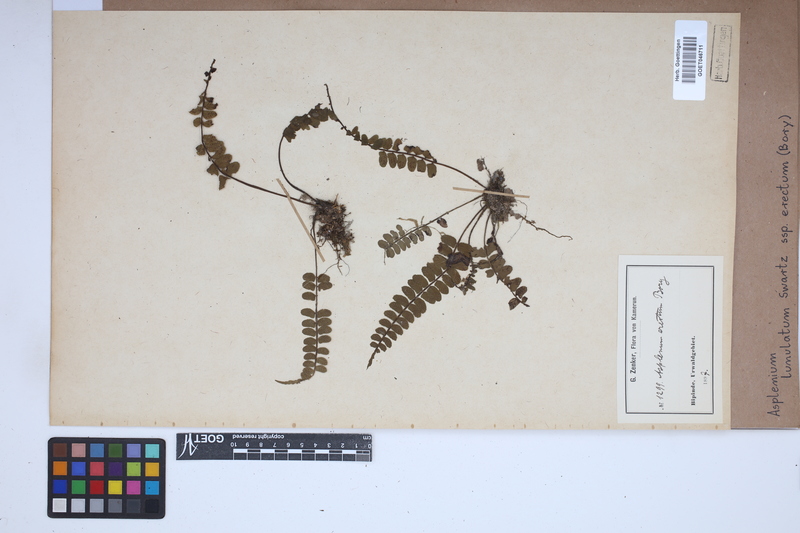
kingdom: Plantae
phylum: Tracheophyta
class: Polypodiopsida
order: Polypodiales
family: Aspleniaceae
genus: Asplenium
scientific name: Asplenium erectum
